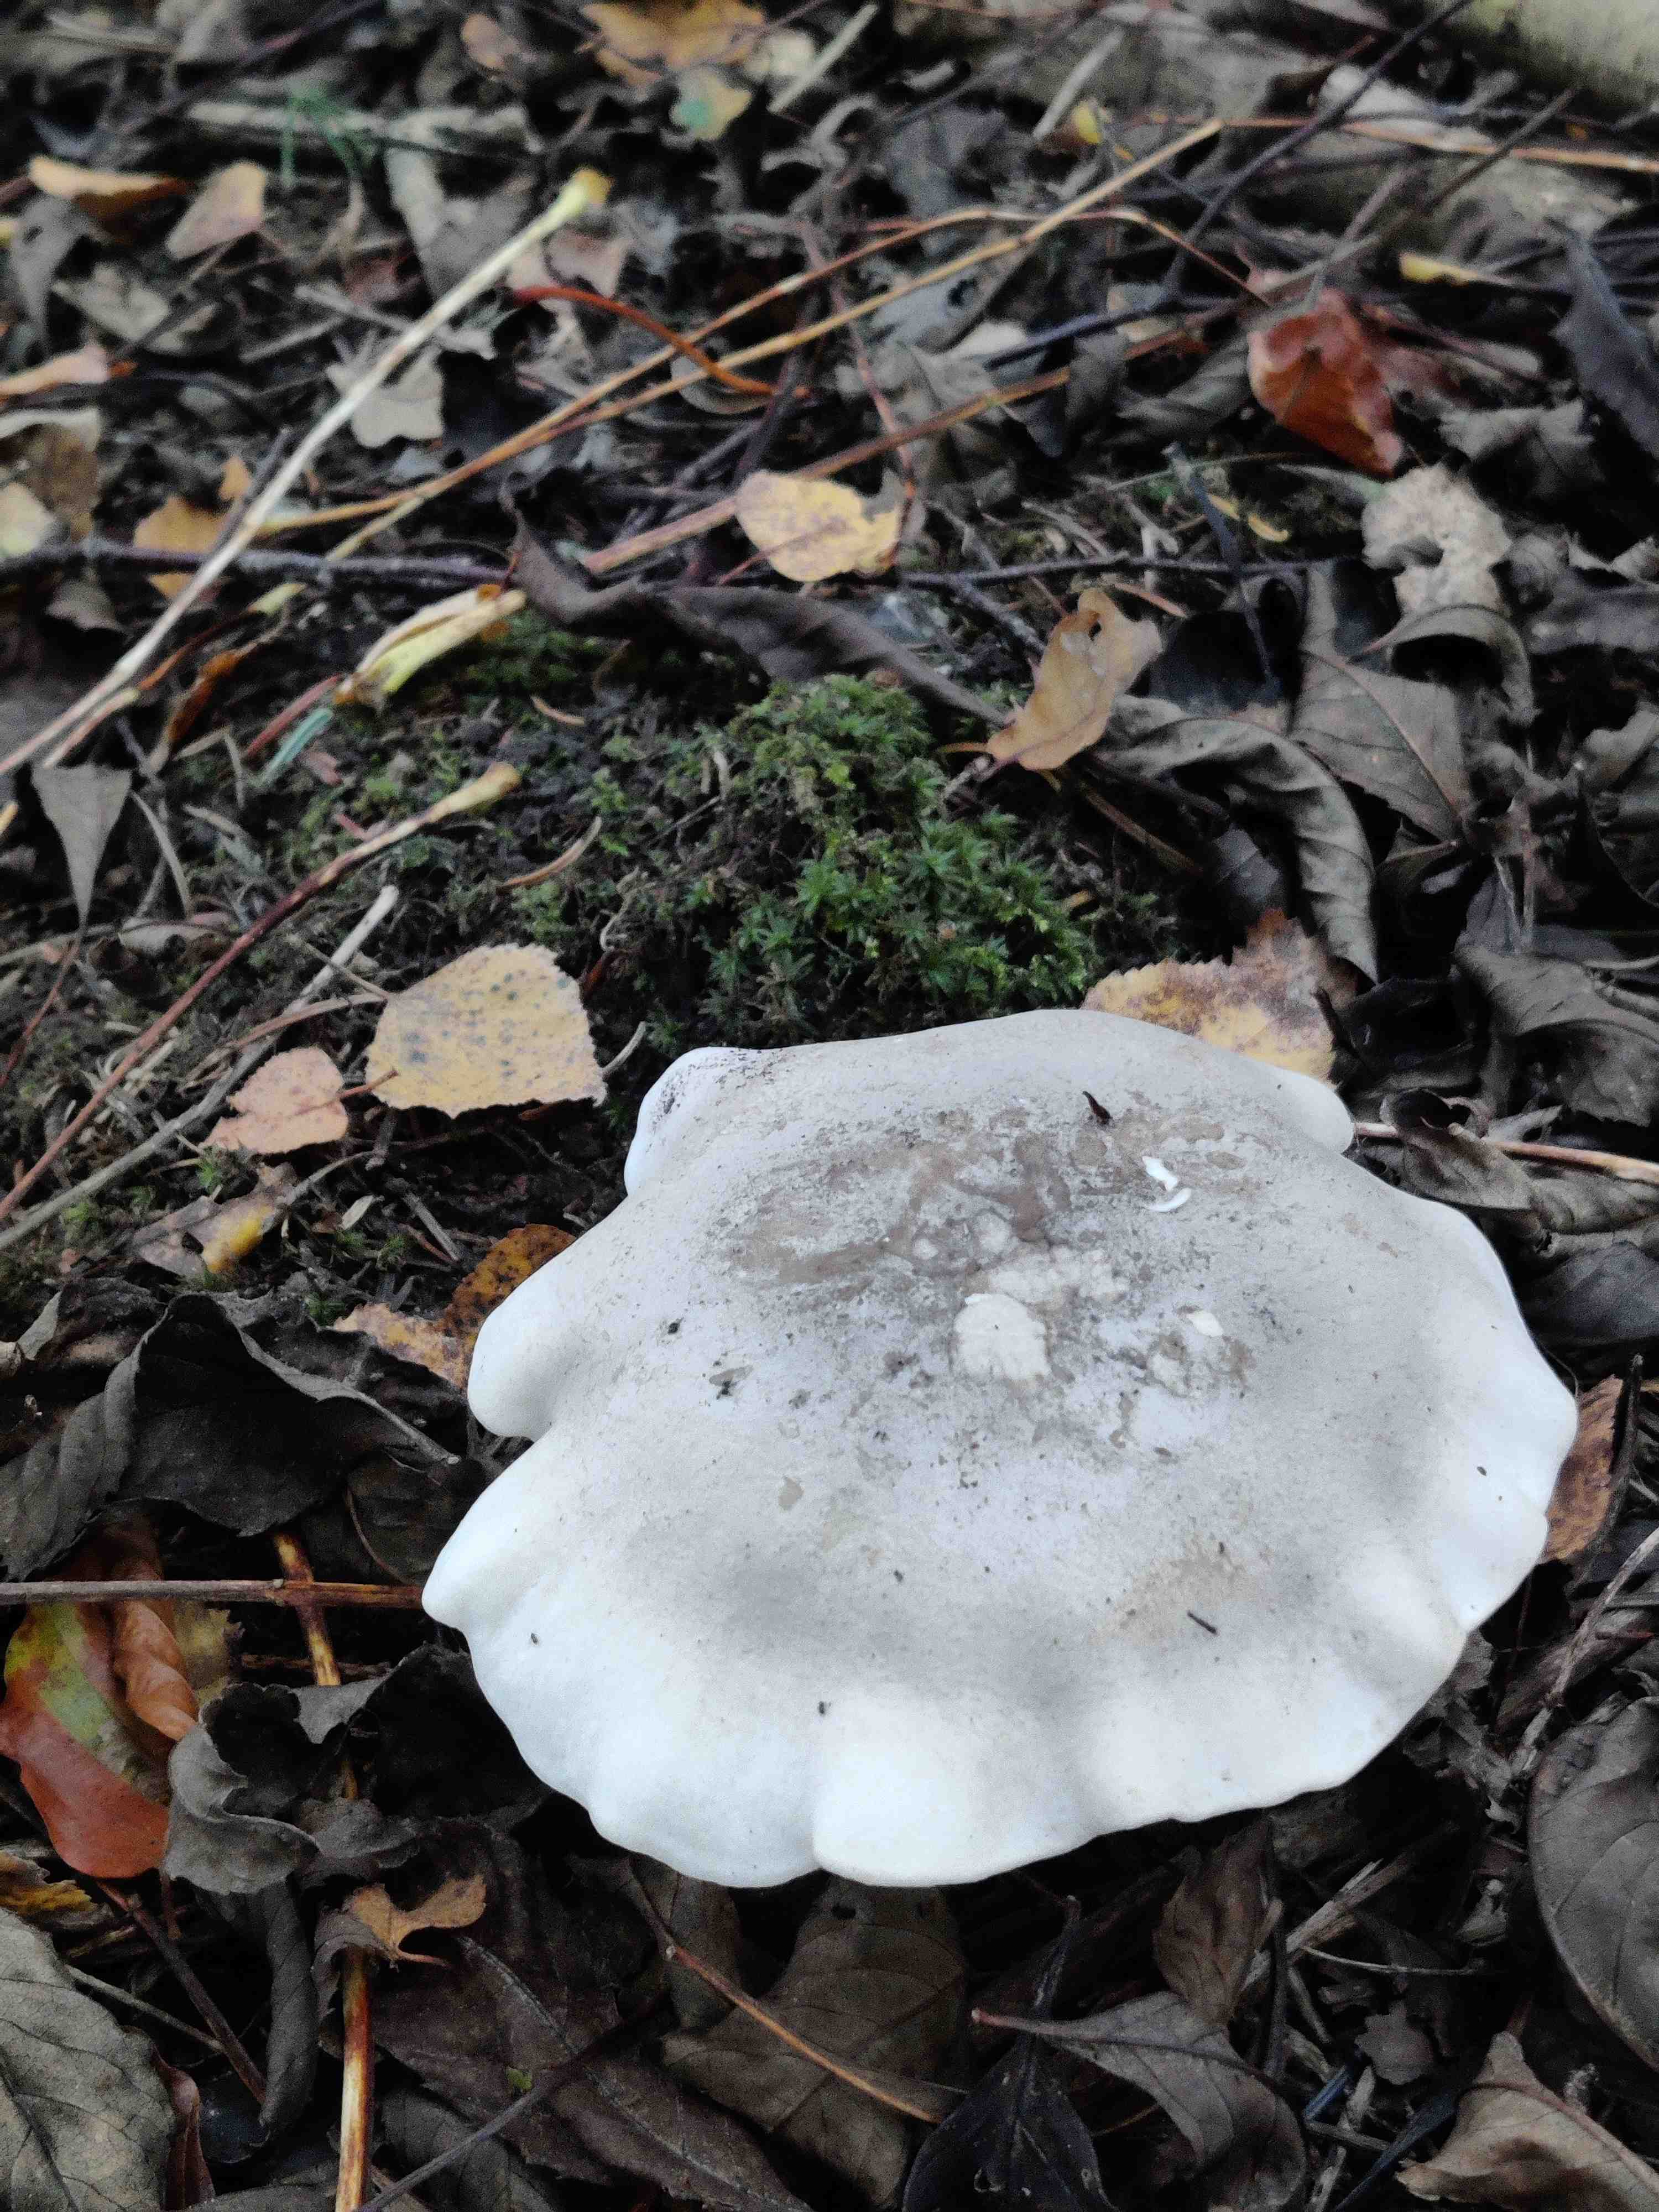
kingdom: Fungi
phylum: Basidiomycota
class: Agaricomycetes
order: Agaricales
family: Tricholomataceae
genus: Clitocybe
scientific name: Clitocybe nebularis
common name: tåge-tragthat
